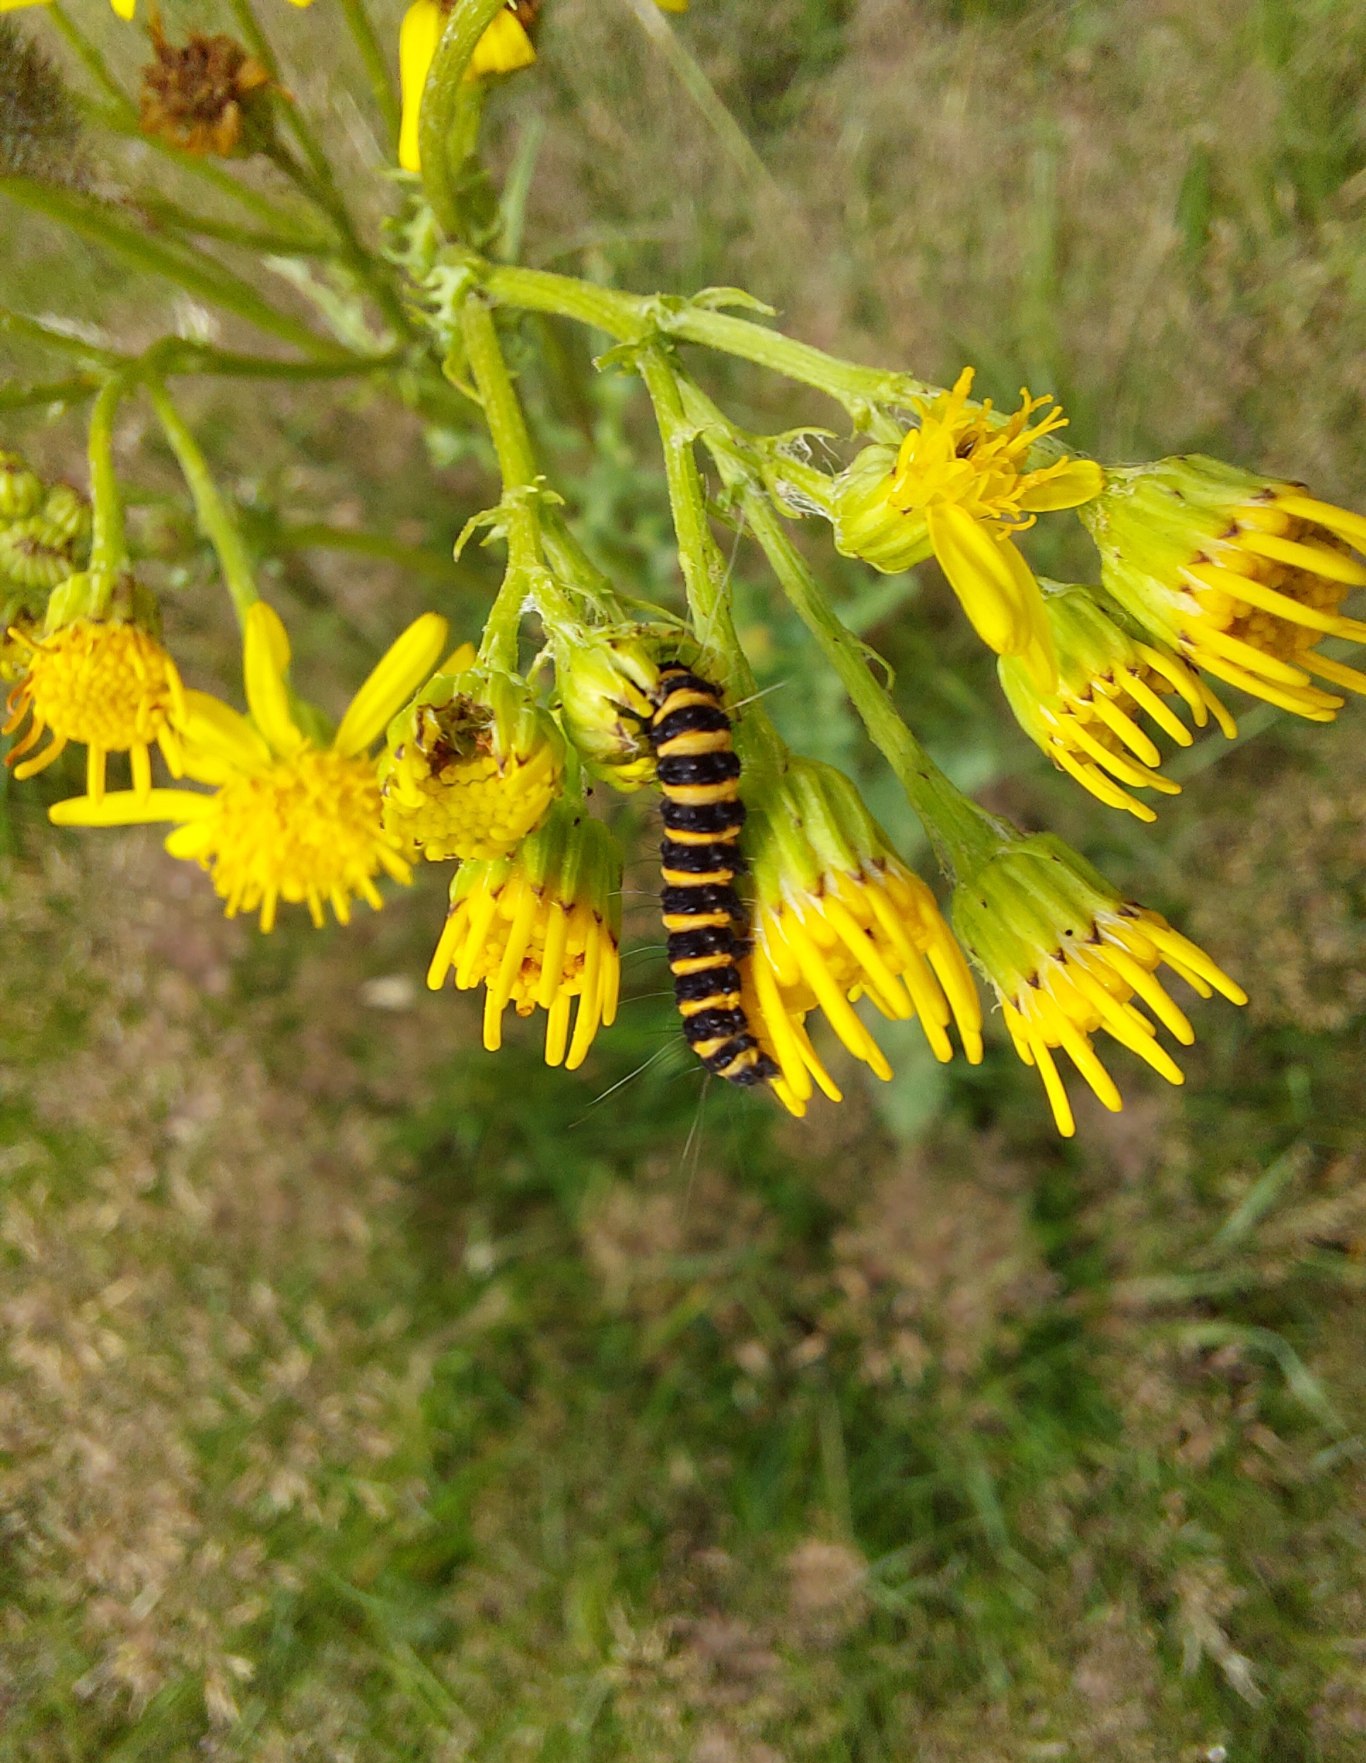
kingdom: Animalia
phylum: Arthropoda
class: Insecta
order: Lepidoptera
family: Erebidae
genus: Tyria
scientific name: Tyria jacobaeae
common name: Blodplet
